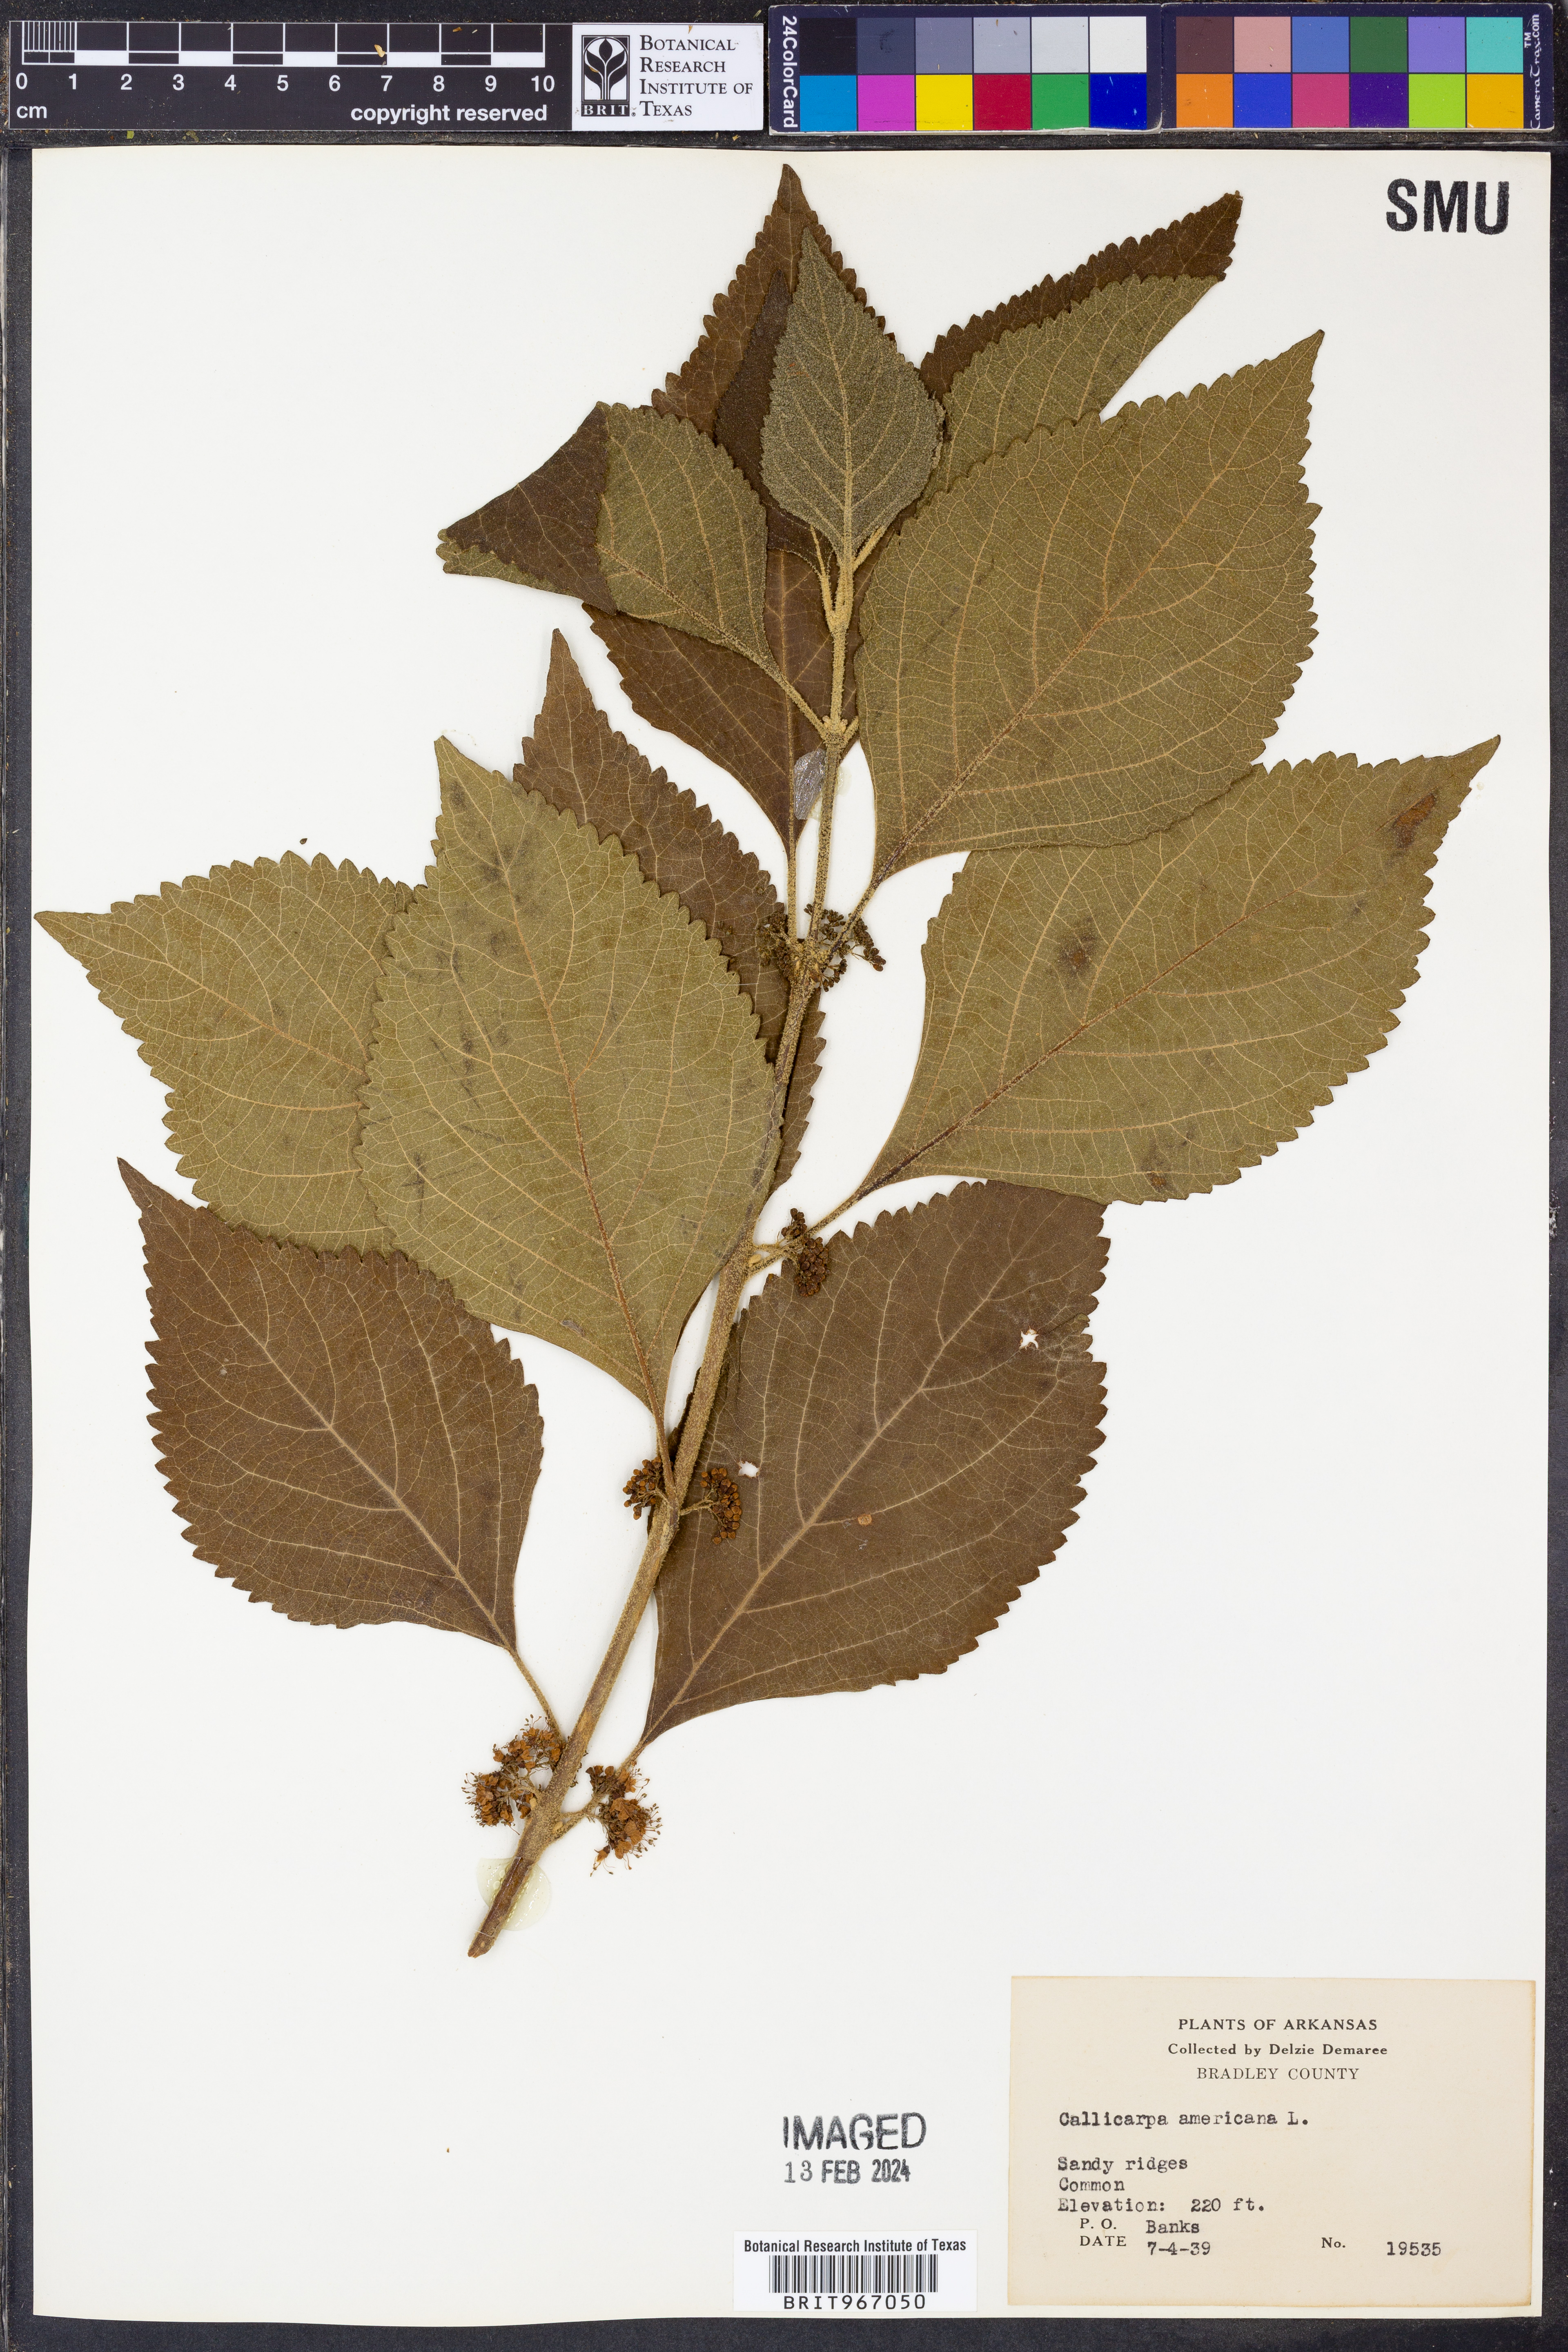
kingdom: Plantae
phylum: Tracheophyta
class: Magnoliopsida
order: Lamiales
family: Lamiaceae
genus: Callicarpa
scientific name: Callicarpa americana
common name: American beautyberry
